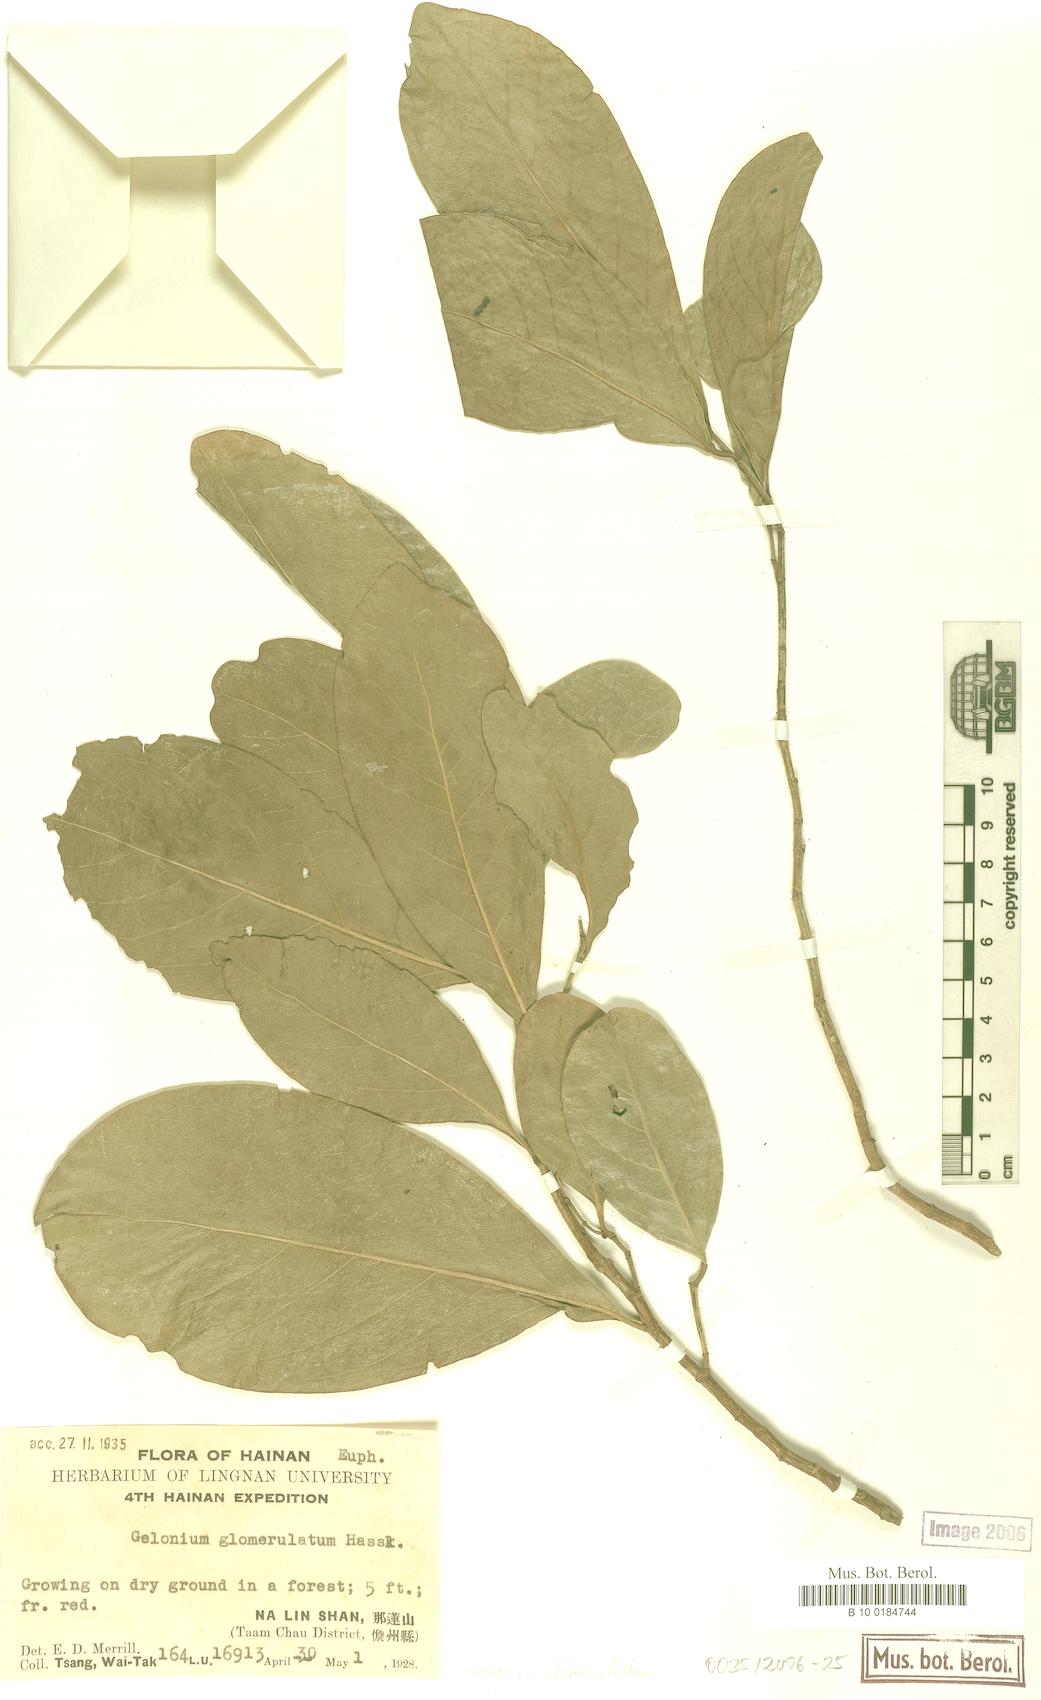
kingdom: Plantae
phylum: Tracheophyta
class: Magnoliopsida
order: Malpighiales
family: Euphorbiaceae
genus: Suregada
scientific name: Suregada glomerulata
